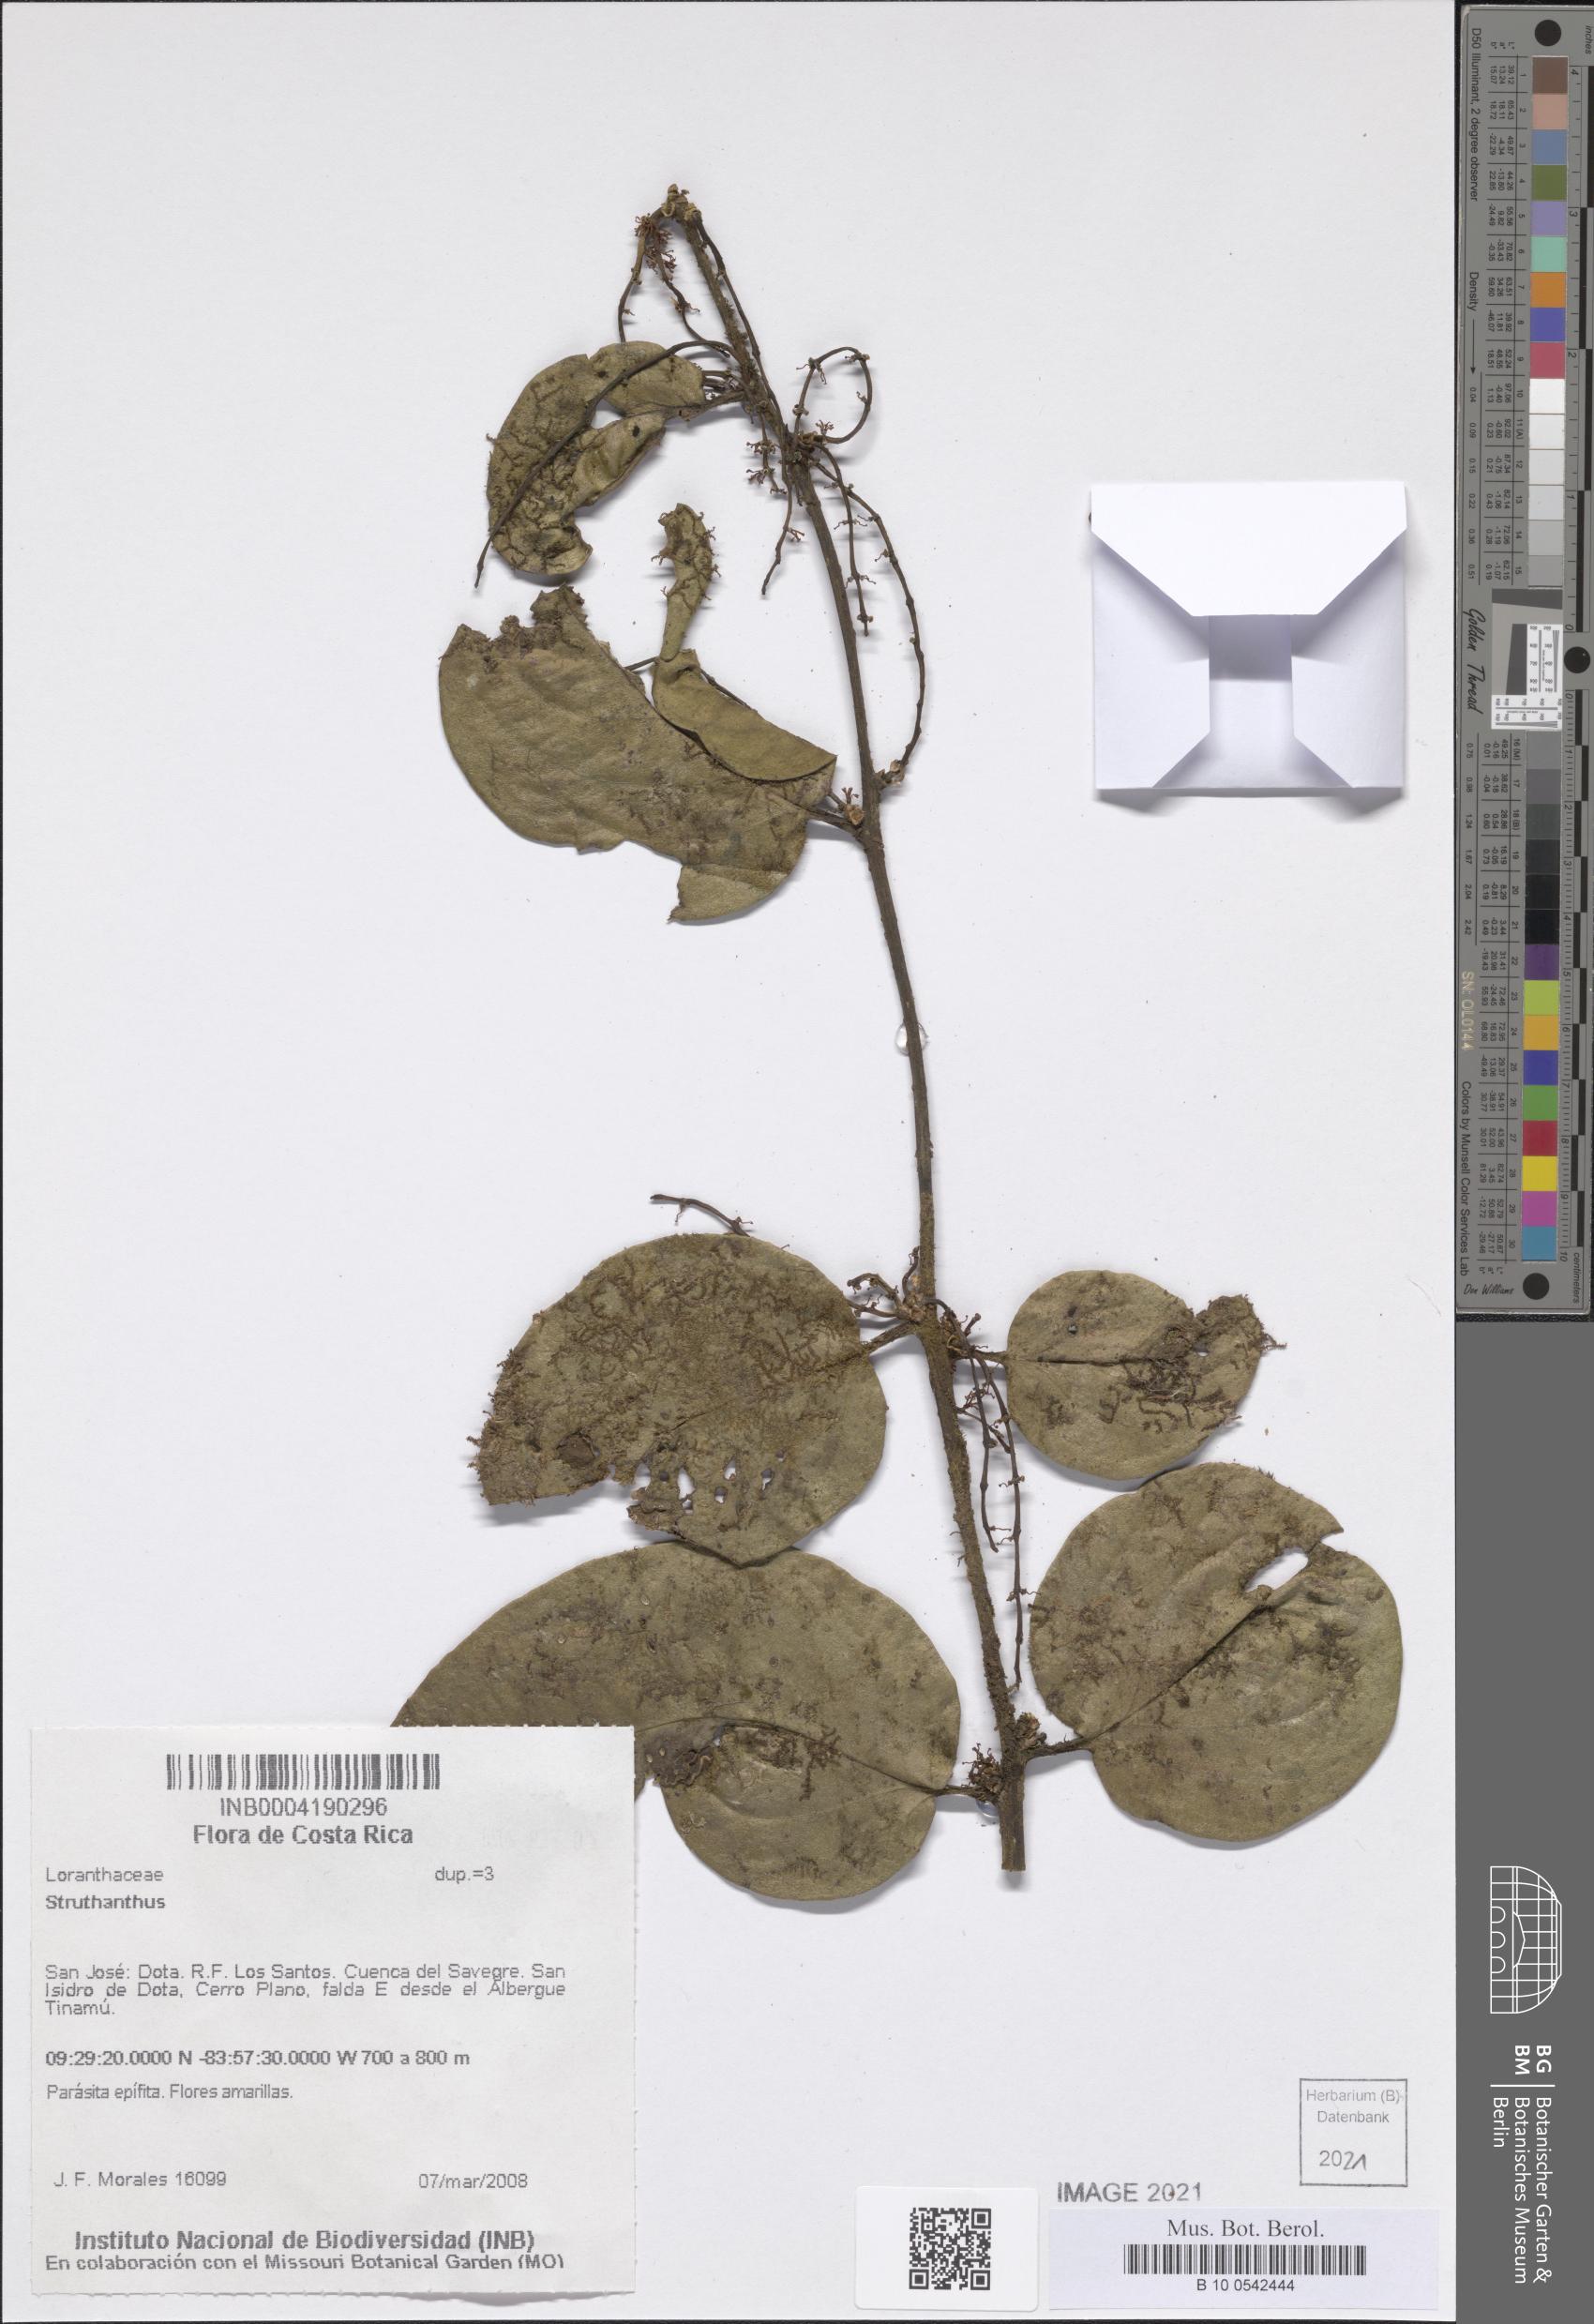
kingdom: Plantae
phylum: Tracheophyta
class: Magnoliopsida
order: Santalales
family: Loranthaceae
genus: Struthanthus
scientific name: Struthanthus
